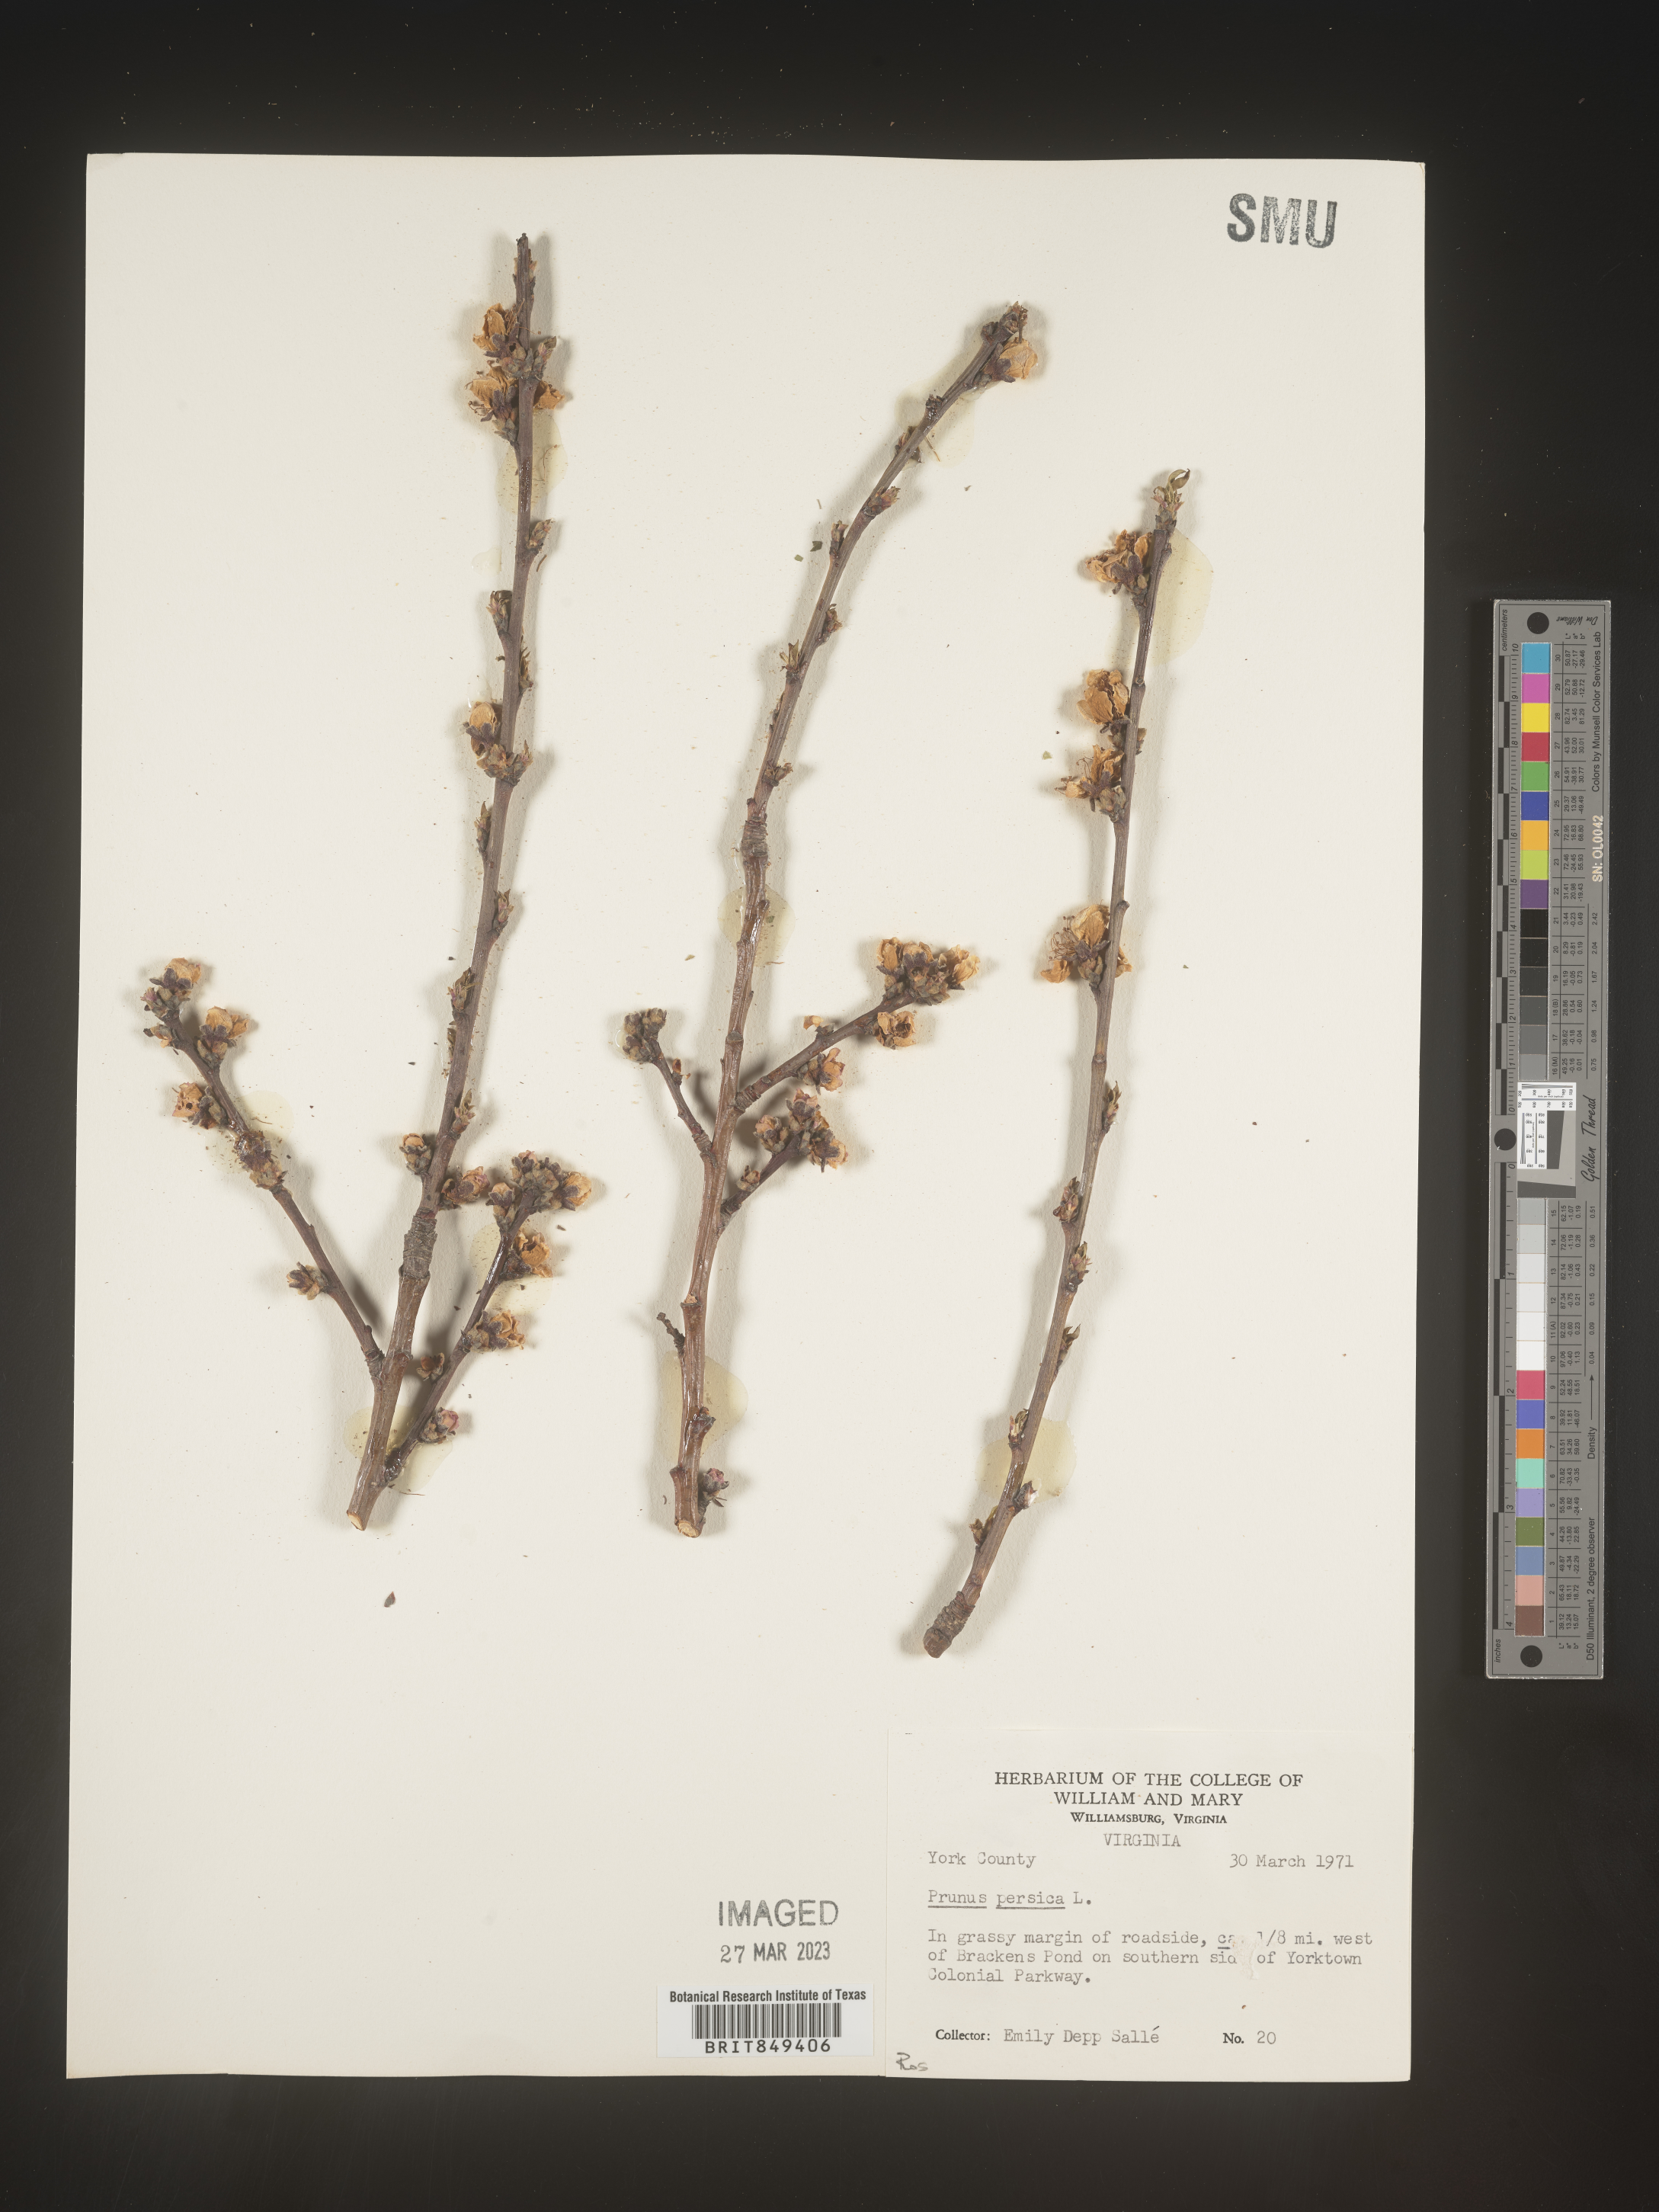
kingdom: Plantae
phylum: Tracheophyta
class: Magnoliopsida
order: Rosales
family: Rosaceae
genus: Prunus
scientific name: Prunus persica
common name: Peach
